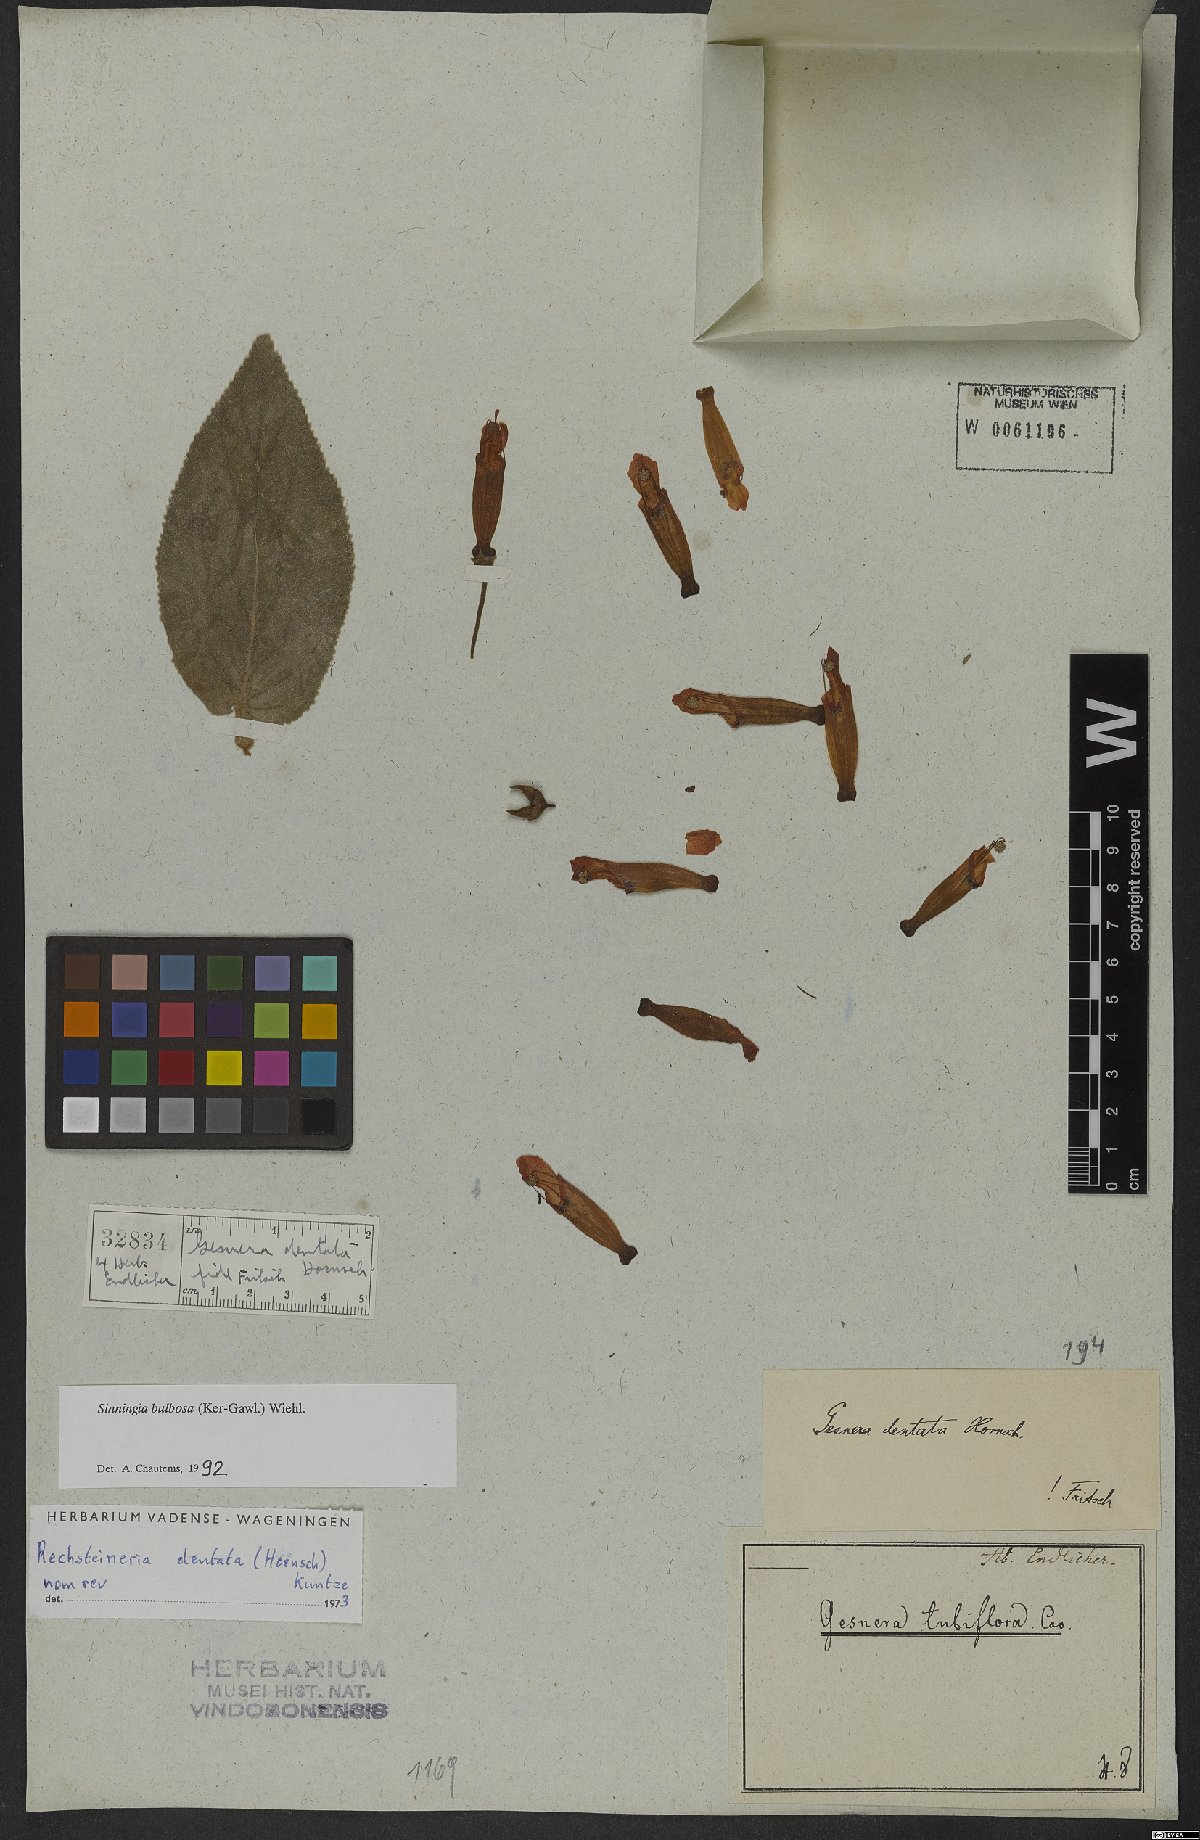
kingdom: Plantae
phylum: Tracheophyta
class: Magnoliopsida
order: Lamiales
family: Gesneriaceae
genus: Sinningia
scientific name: Sinningia bulbosa
